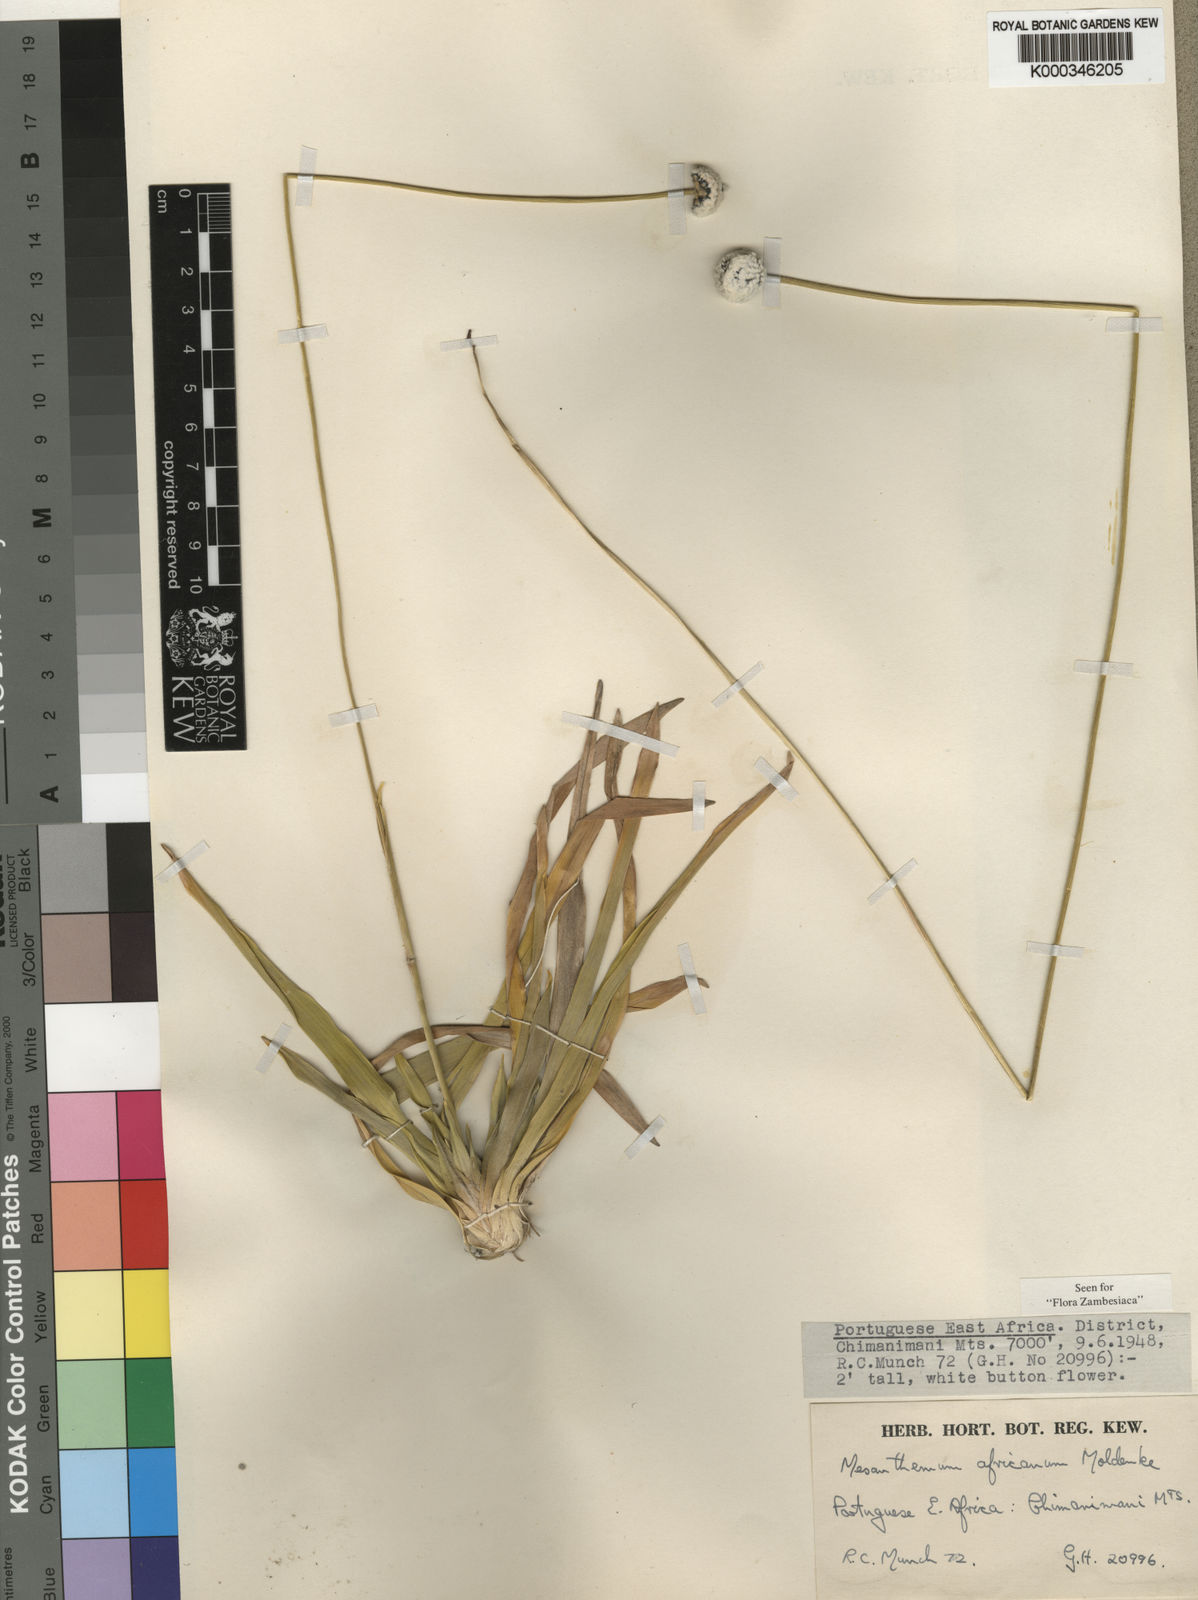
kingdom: Plantae
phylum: Tracheophyta
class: Liliopsida
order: Poales
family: Eriocaulaceae
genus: Mesanthemum
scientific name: Mesanthemum africanum
